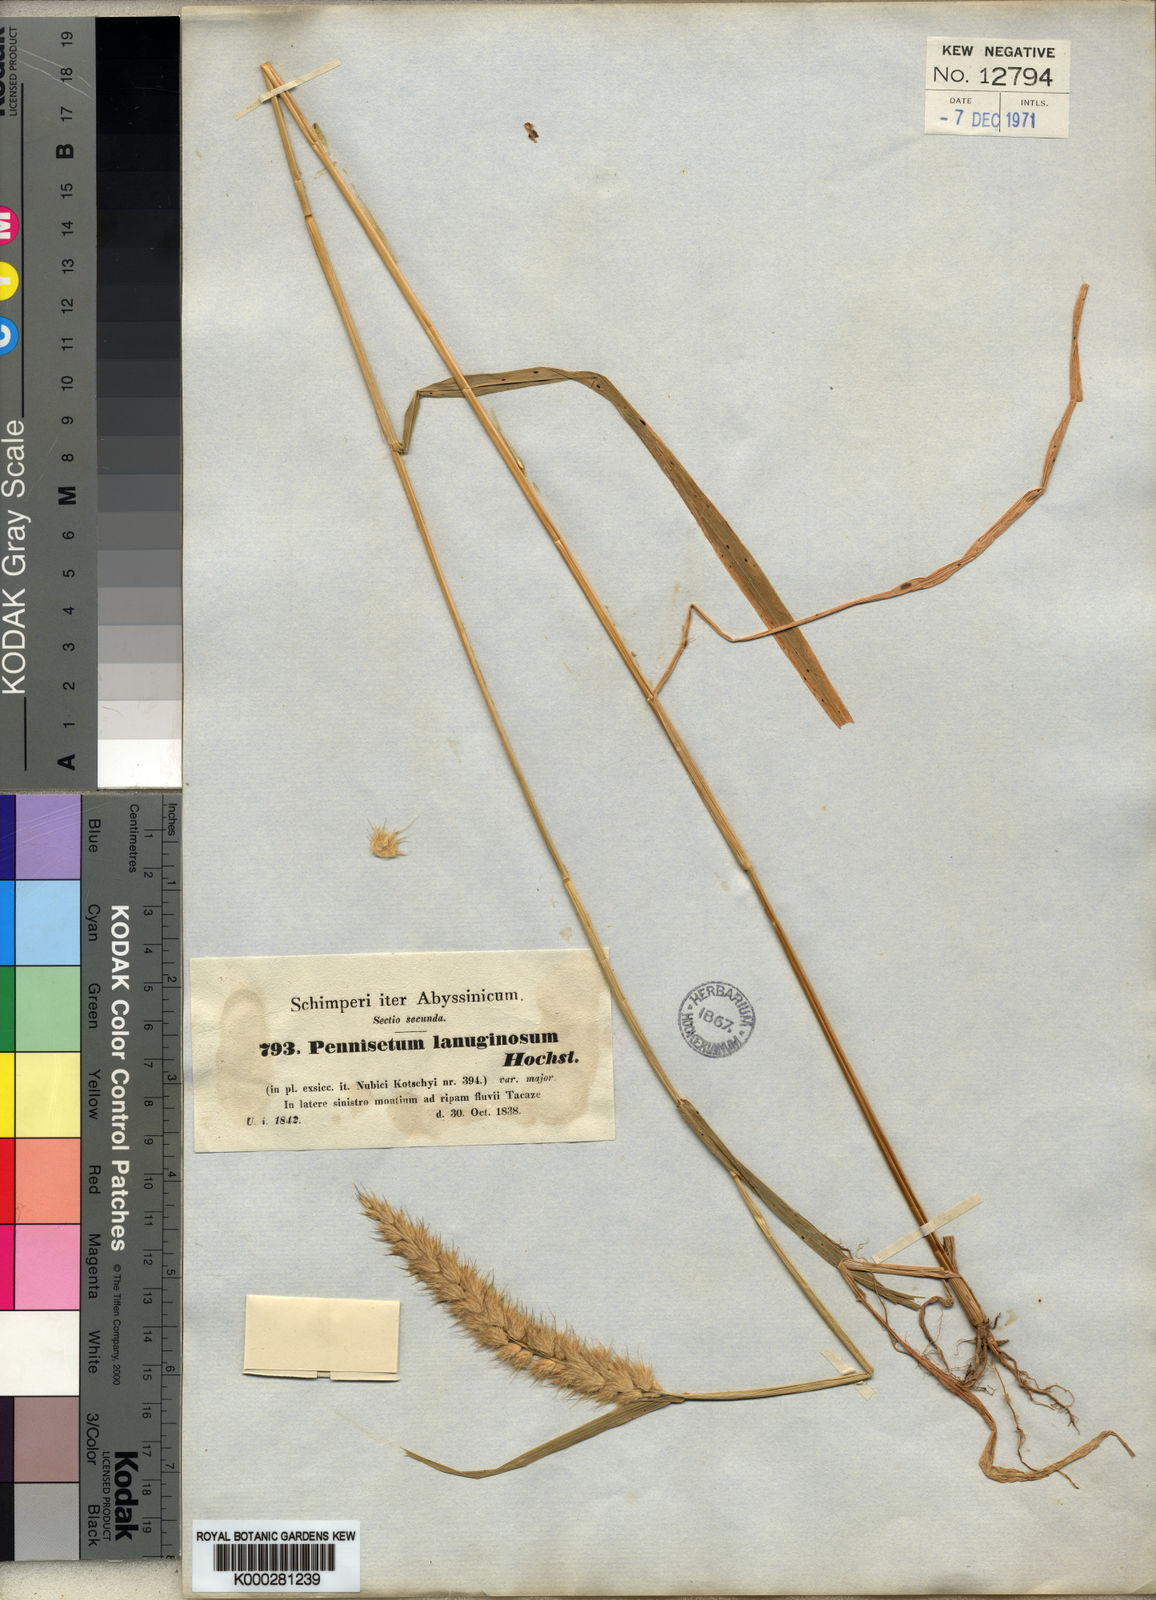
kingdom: Plantae
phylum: Tracheophyta
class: Liliopsida
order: Poales
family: Poaceae
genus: Cenchrus
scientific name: Cenchrus pedicellatus
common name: Hairy fountain grass
